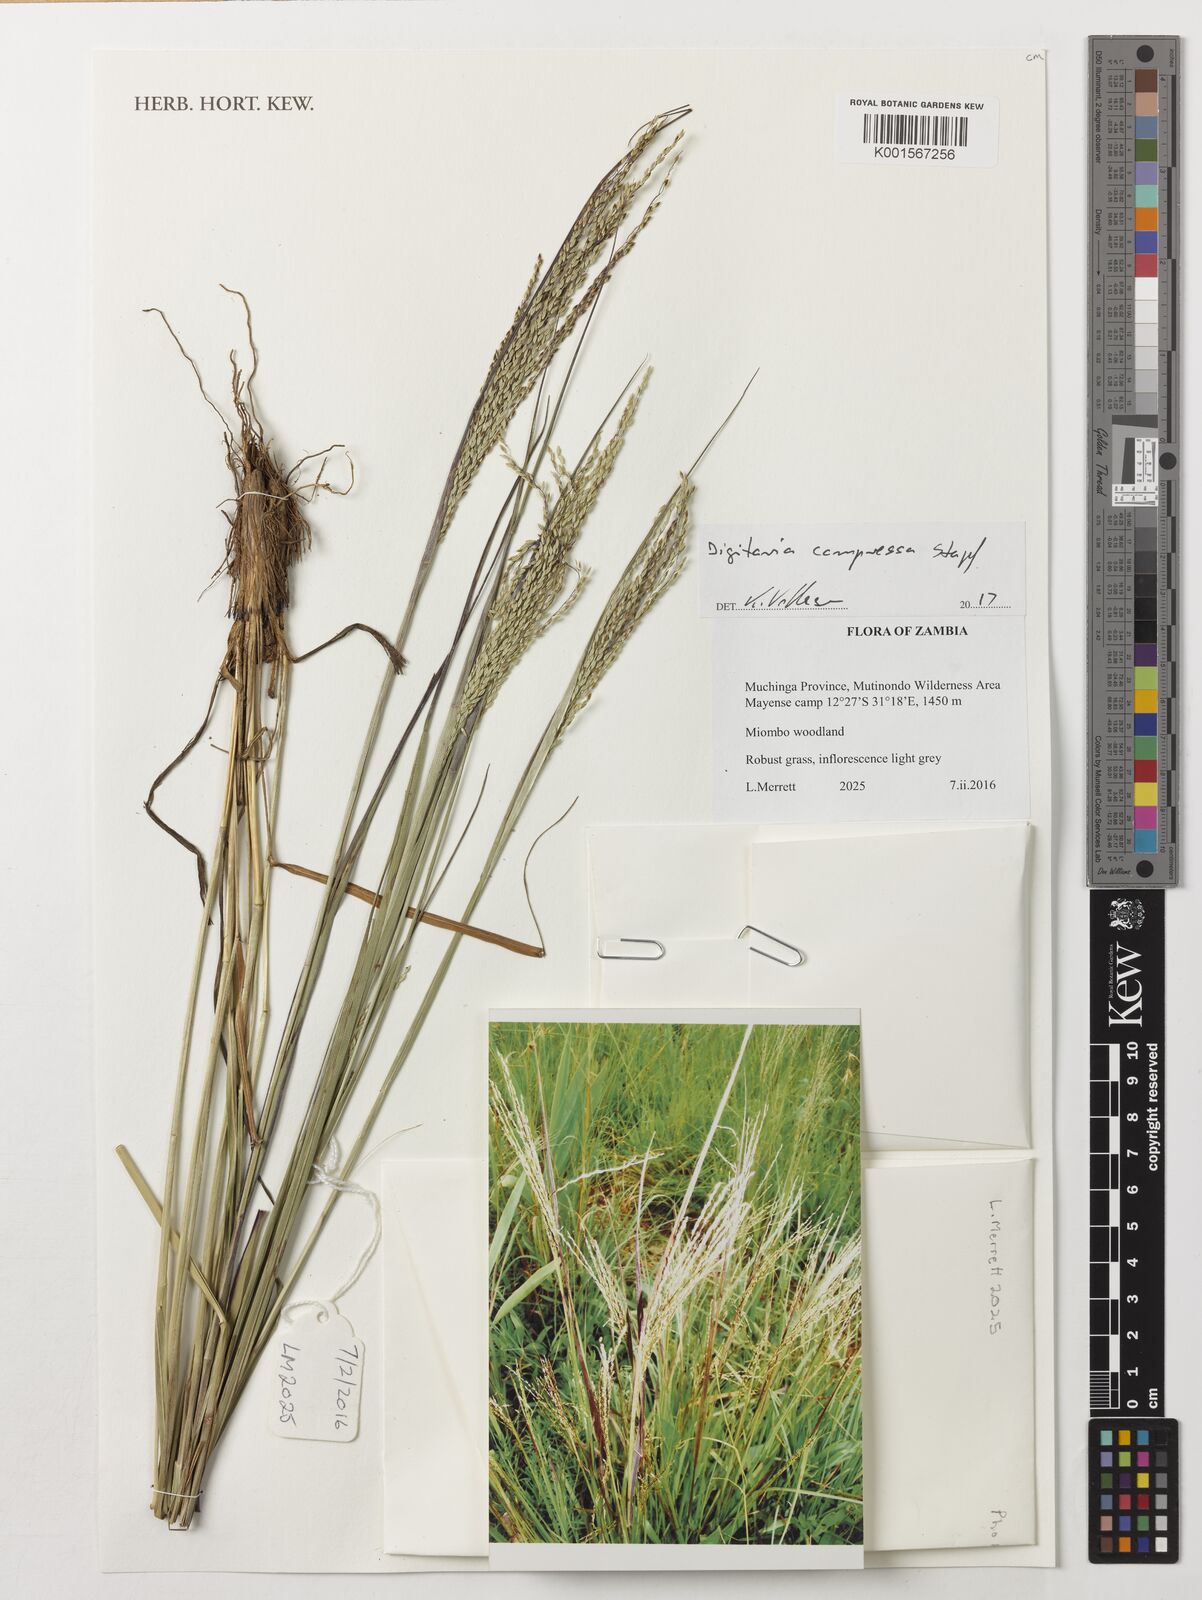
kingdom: Plantae
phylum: Tracheophyta
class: Liliopsida
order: Poales
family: Poaceae
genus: Digitaria
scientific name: Digitaria compressa
